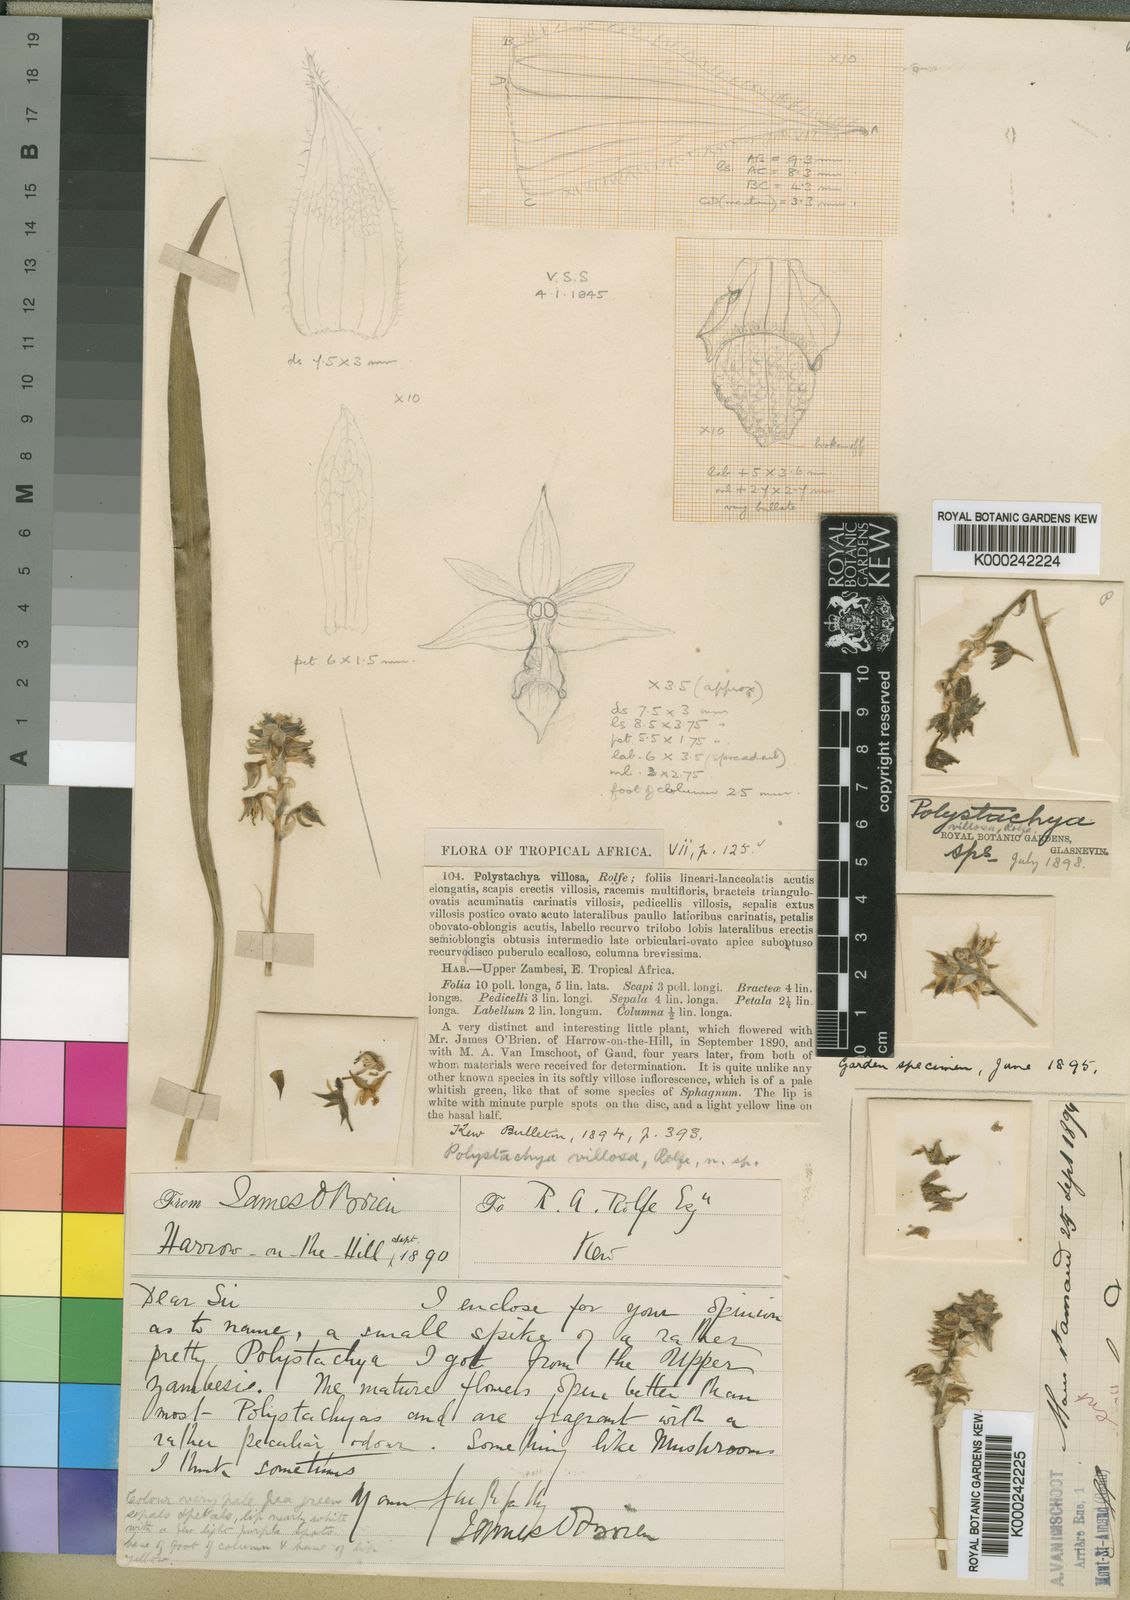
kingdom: Plantae
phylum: Tracheophyta
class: Liliopsida
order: Asparagales
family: Orchidaceae
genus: Polystachya
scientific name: Polystachya villosa
